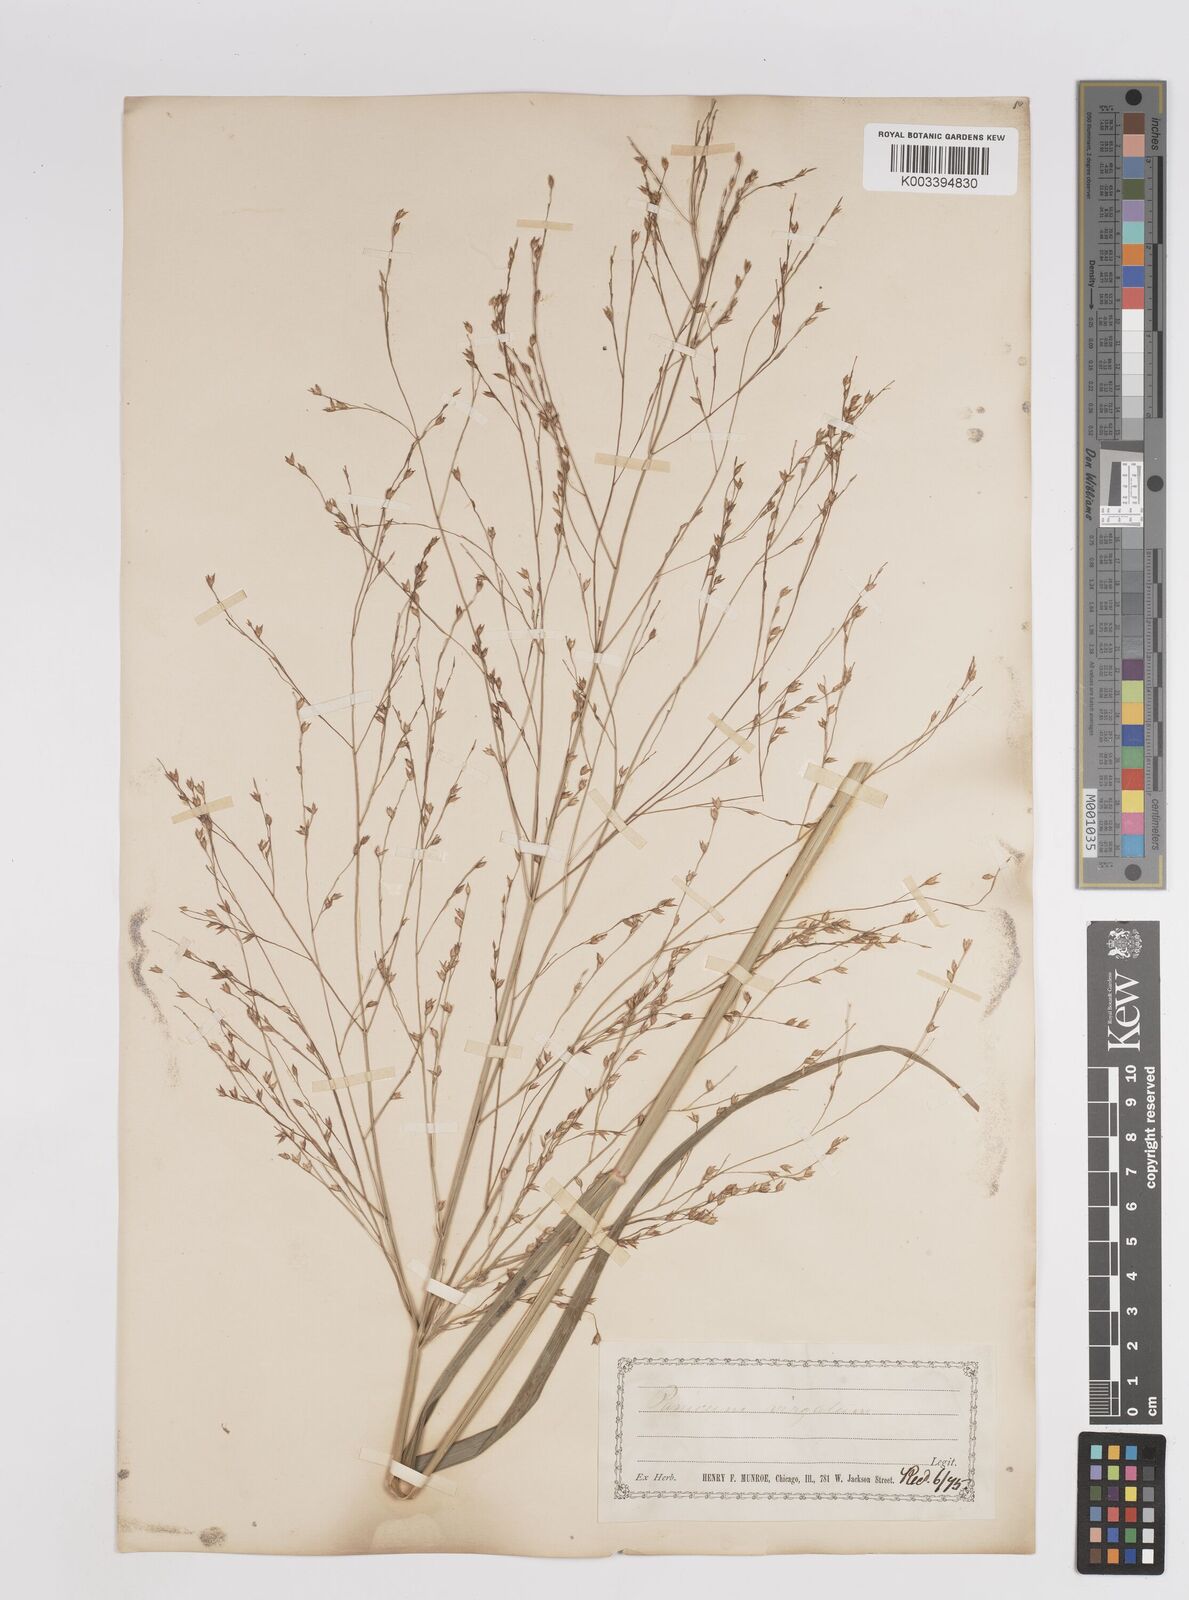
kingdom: Plantae
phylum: Tracheophyta
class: Liliopsida
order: Poales
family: Poaceae
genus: Panicum
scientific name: Panicum virgatum
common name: Switchgrass
